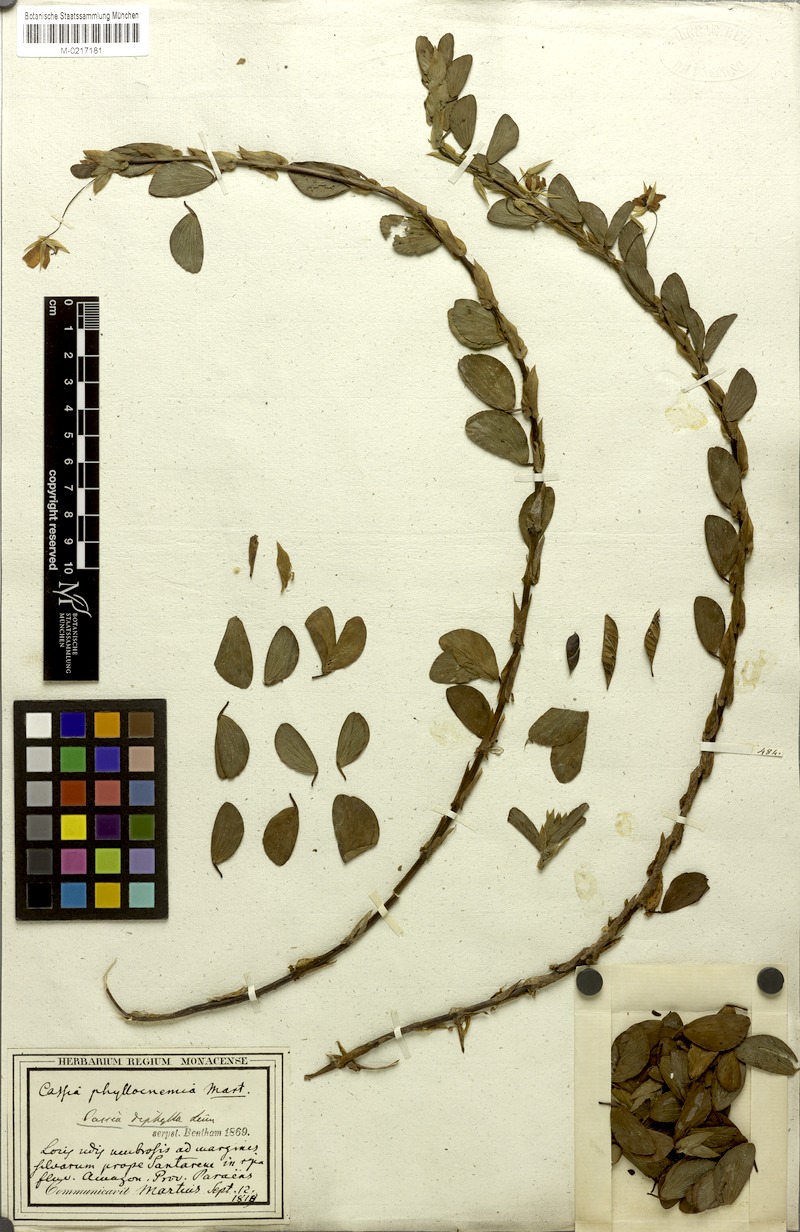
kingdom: Plantae
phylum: Tracheophyta
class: Magnoliopsida
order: Fabales
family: Fabaceae
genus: Chamaecrista
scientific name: Chamaecrista diphylla
